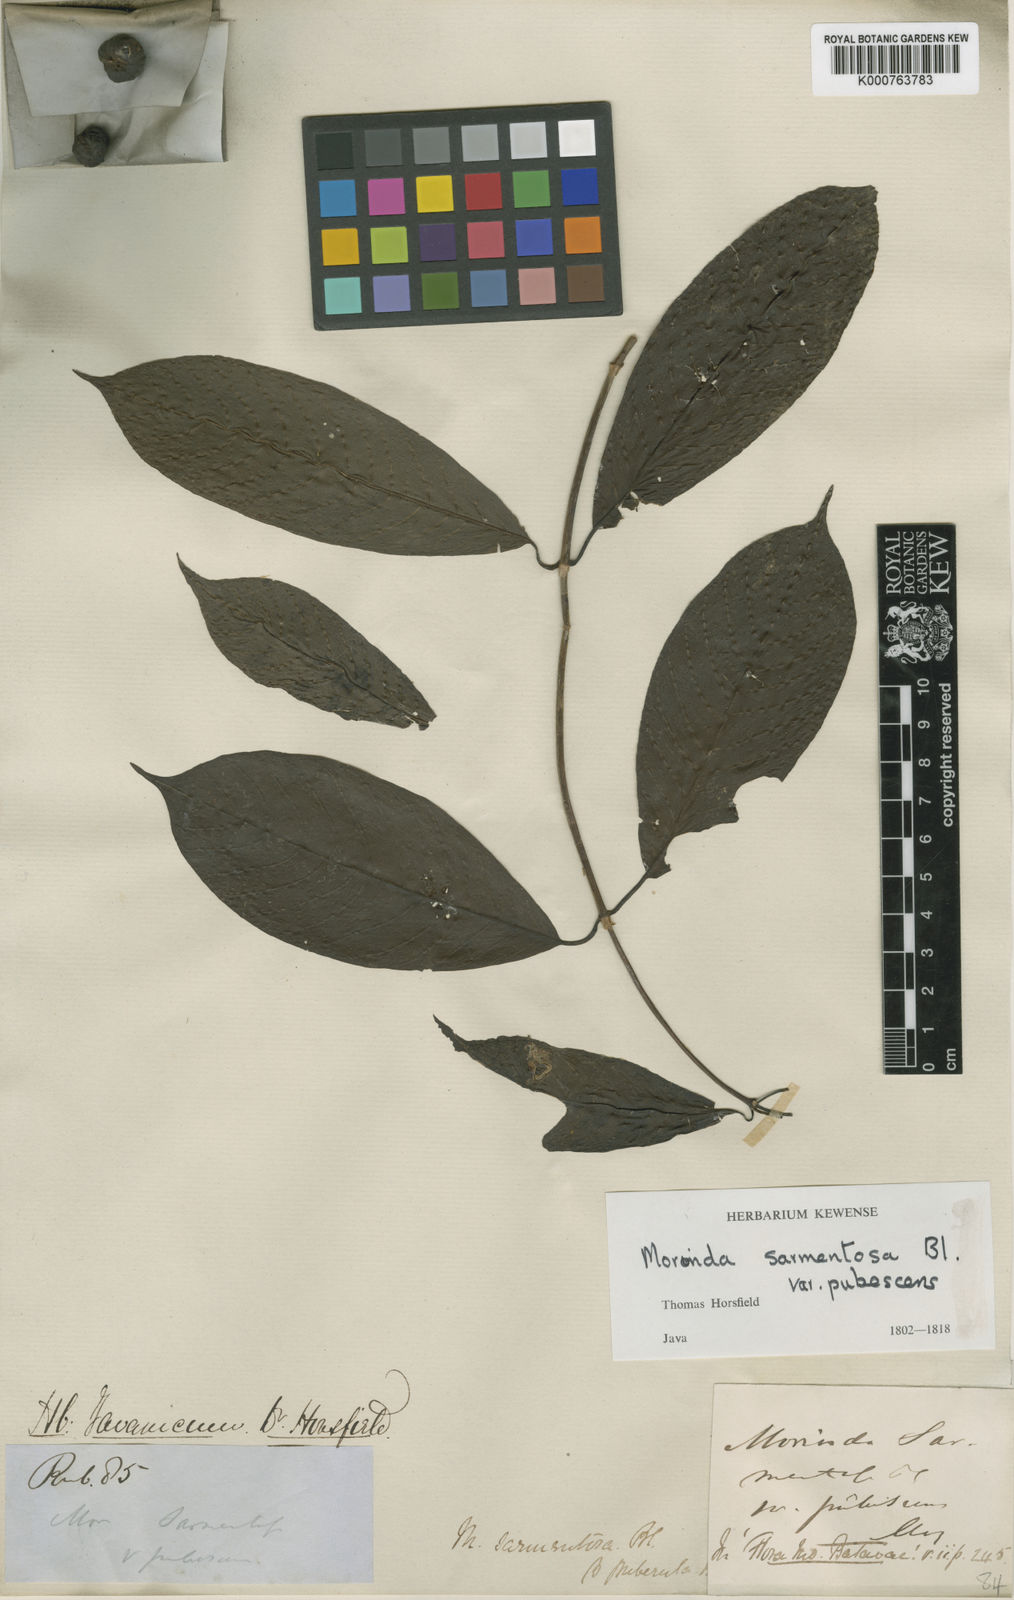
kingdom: Plantae
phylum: Tracheophyta
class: Magnoliopsida
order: Gentianales
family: Rubiaceae
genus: Gynochthodes
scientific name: Gynochthodes sarmentosa
